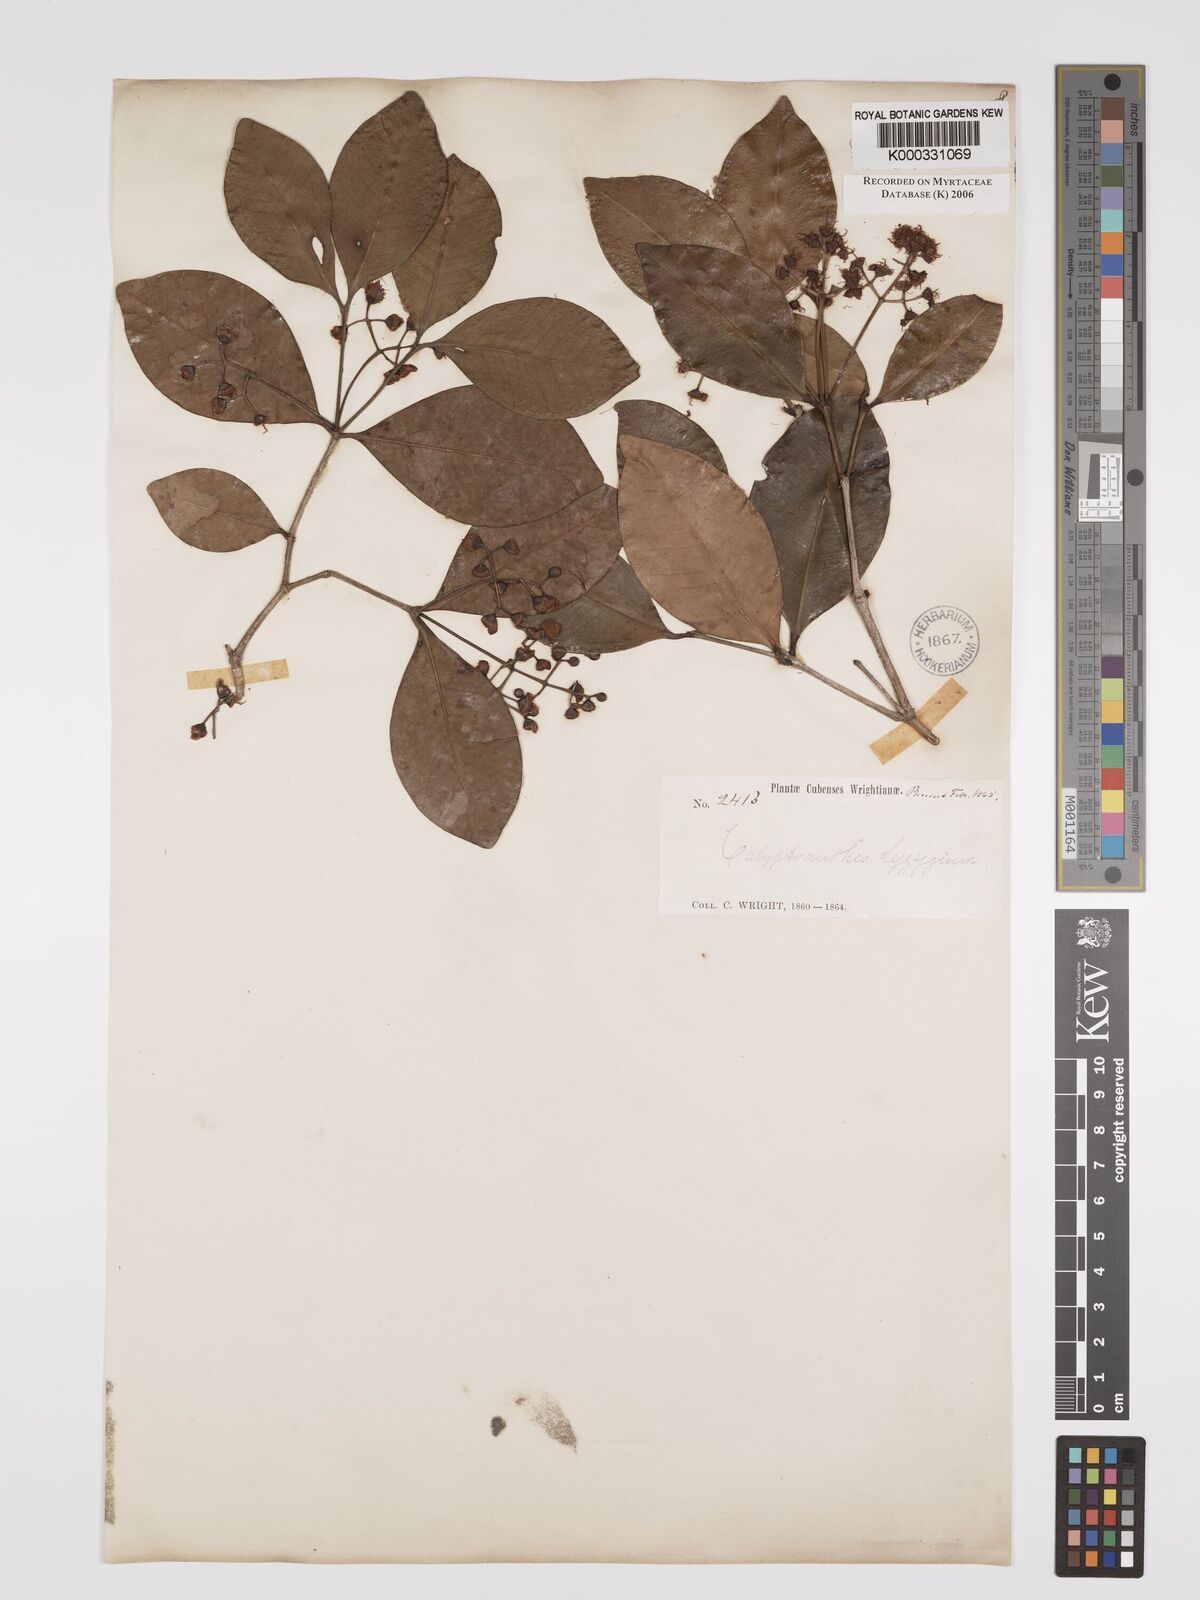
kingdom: Plantae
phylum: Tracheophyta
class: Magnoliopsida
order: Myrtales
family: Myrtaceae
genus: Myrcia
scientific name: Myrcia chytraculia
